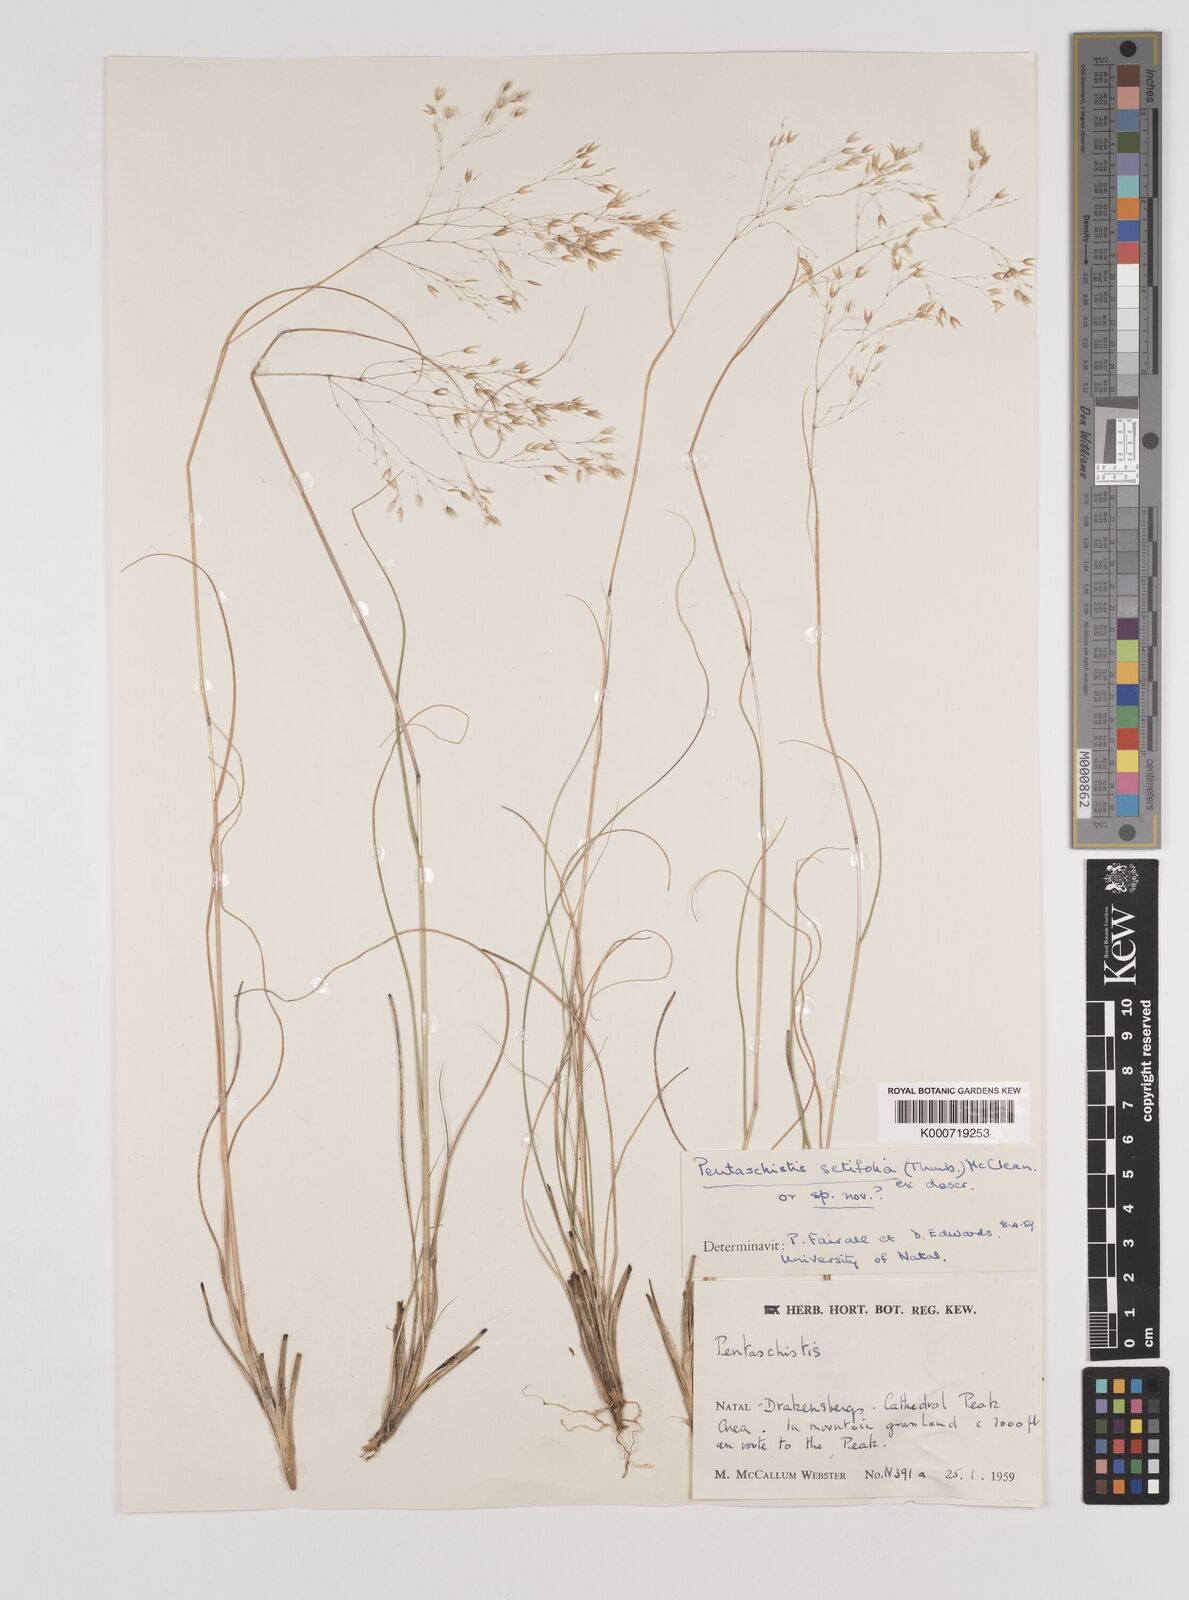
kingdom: Plantae
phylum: Tracheophyta
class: Liliopsida
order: Poales
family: Poaceae
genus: Pentameris
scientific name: Pentameris setifolia
